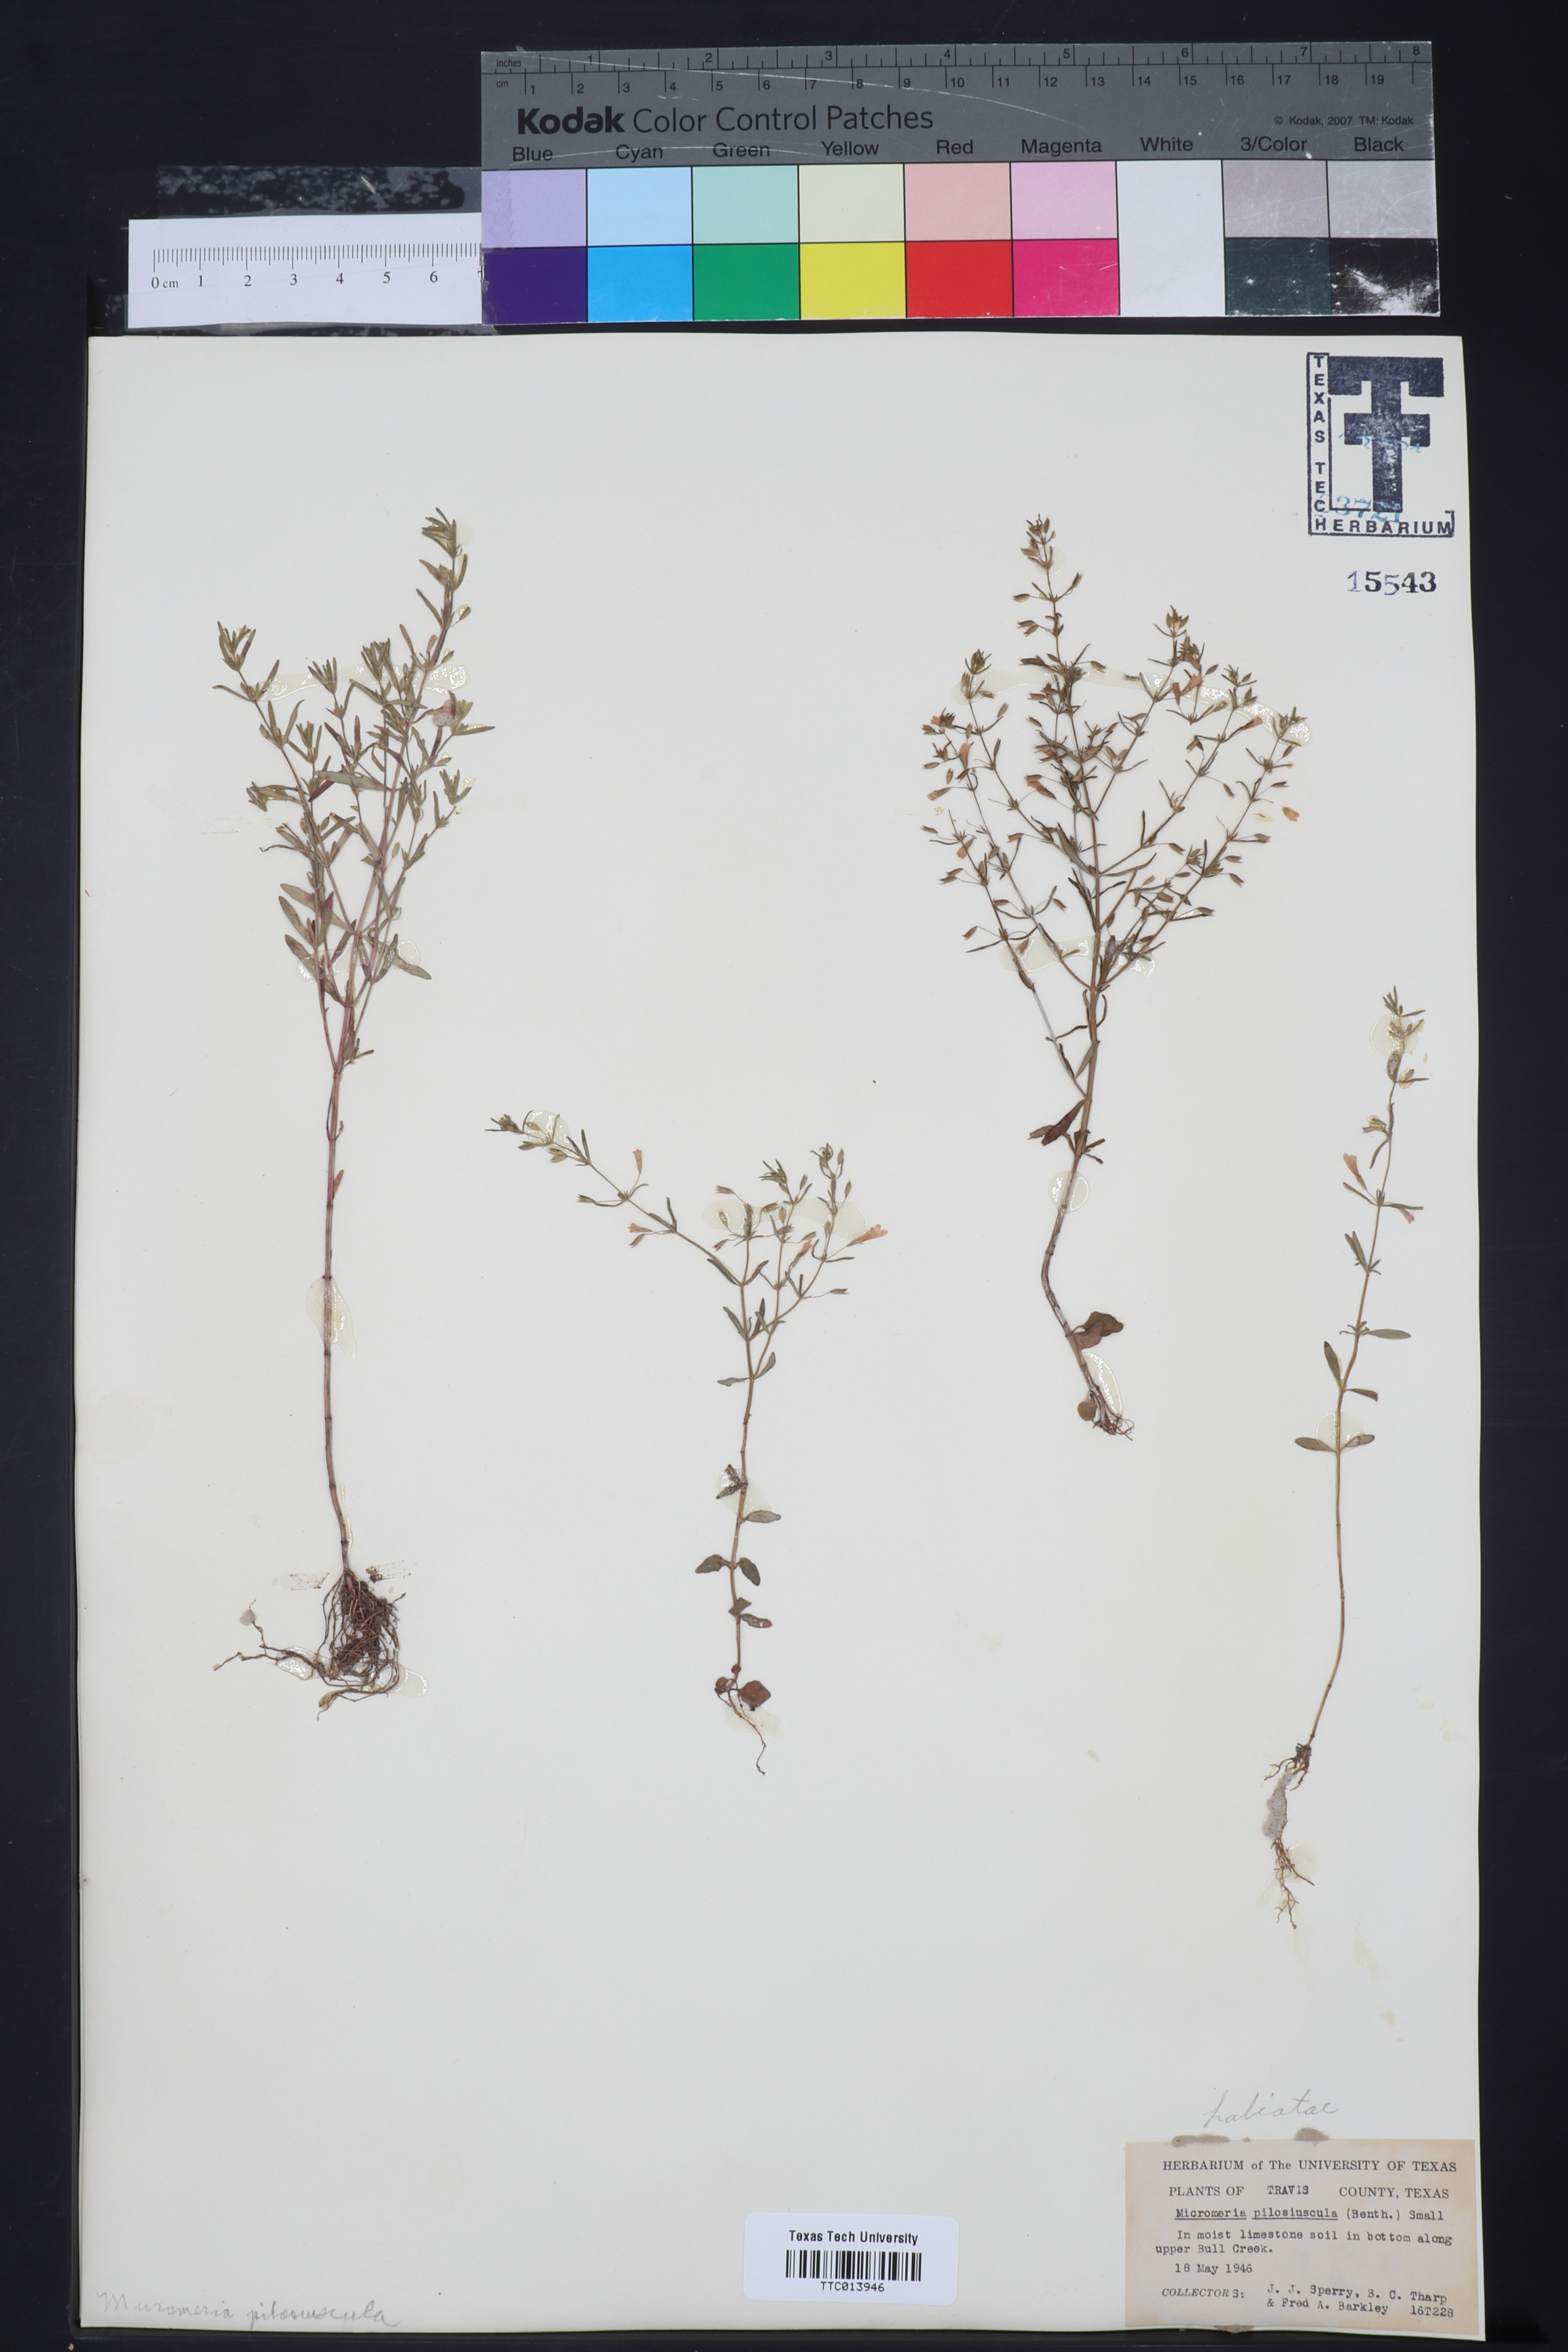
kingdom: Plantae
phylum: Tracheophyta
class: Magnoliopsida
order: Lamiales
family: Lamiaceae
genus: Clinopodium
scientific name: Clinopodium brownei
